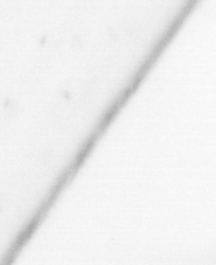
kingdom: Animalia
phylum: Chaetognatha
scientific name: Chaetognatha
